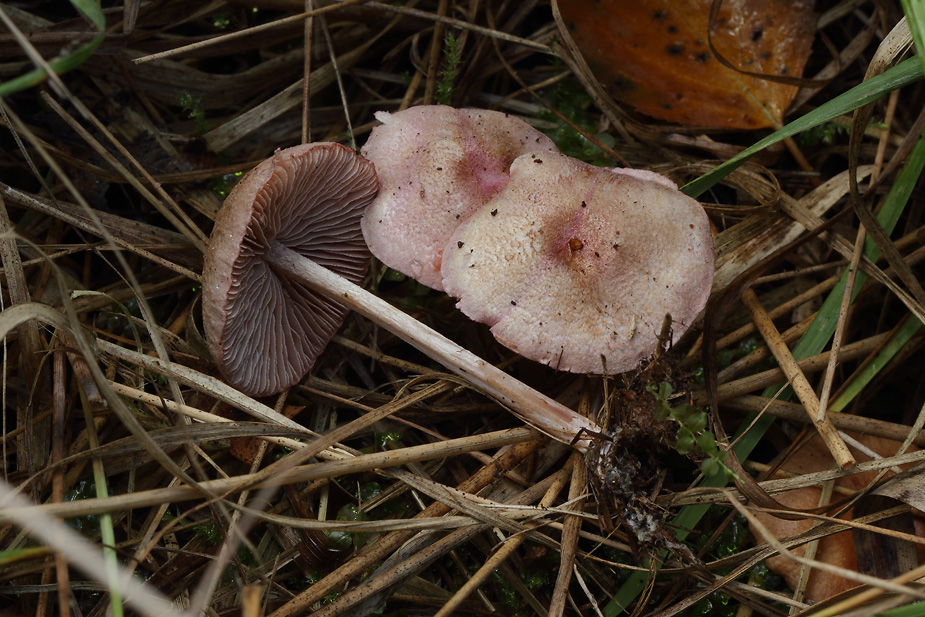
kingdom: Fungi
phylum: Basidiomycota
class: Agaricomycetes
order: Agaricales
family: Entolomataceae
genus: Entoloma
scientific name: Entoloma queletii
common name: rosalilla rødblad
